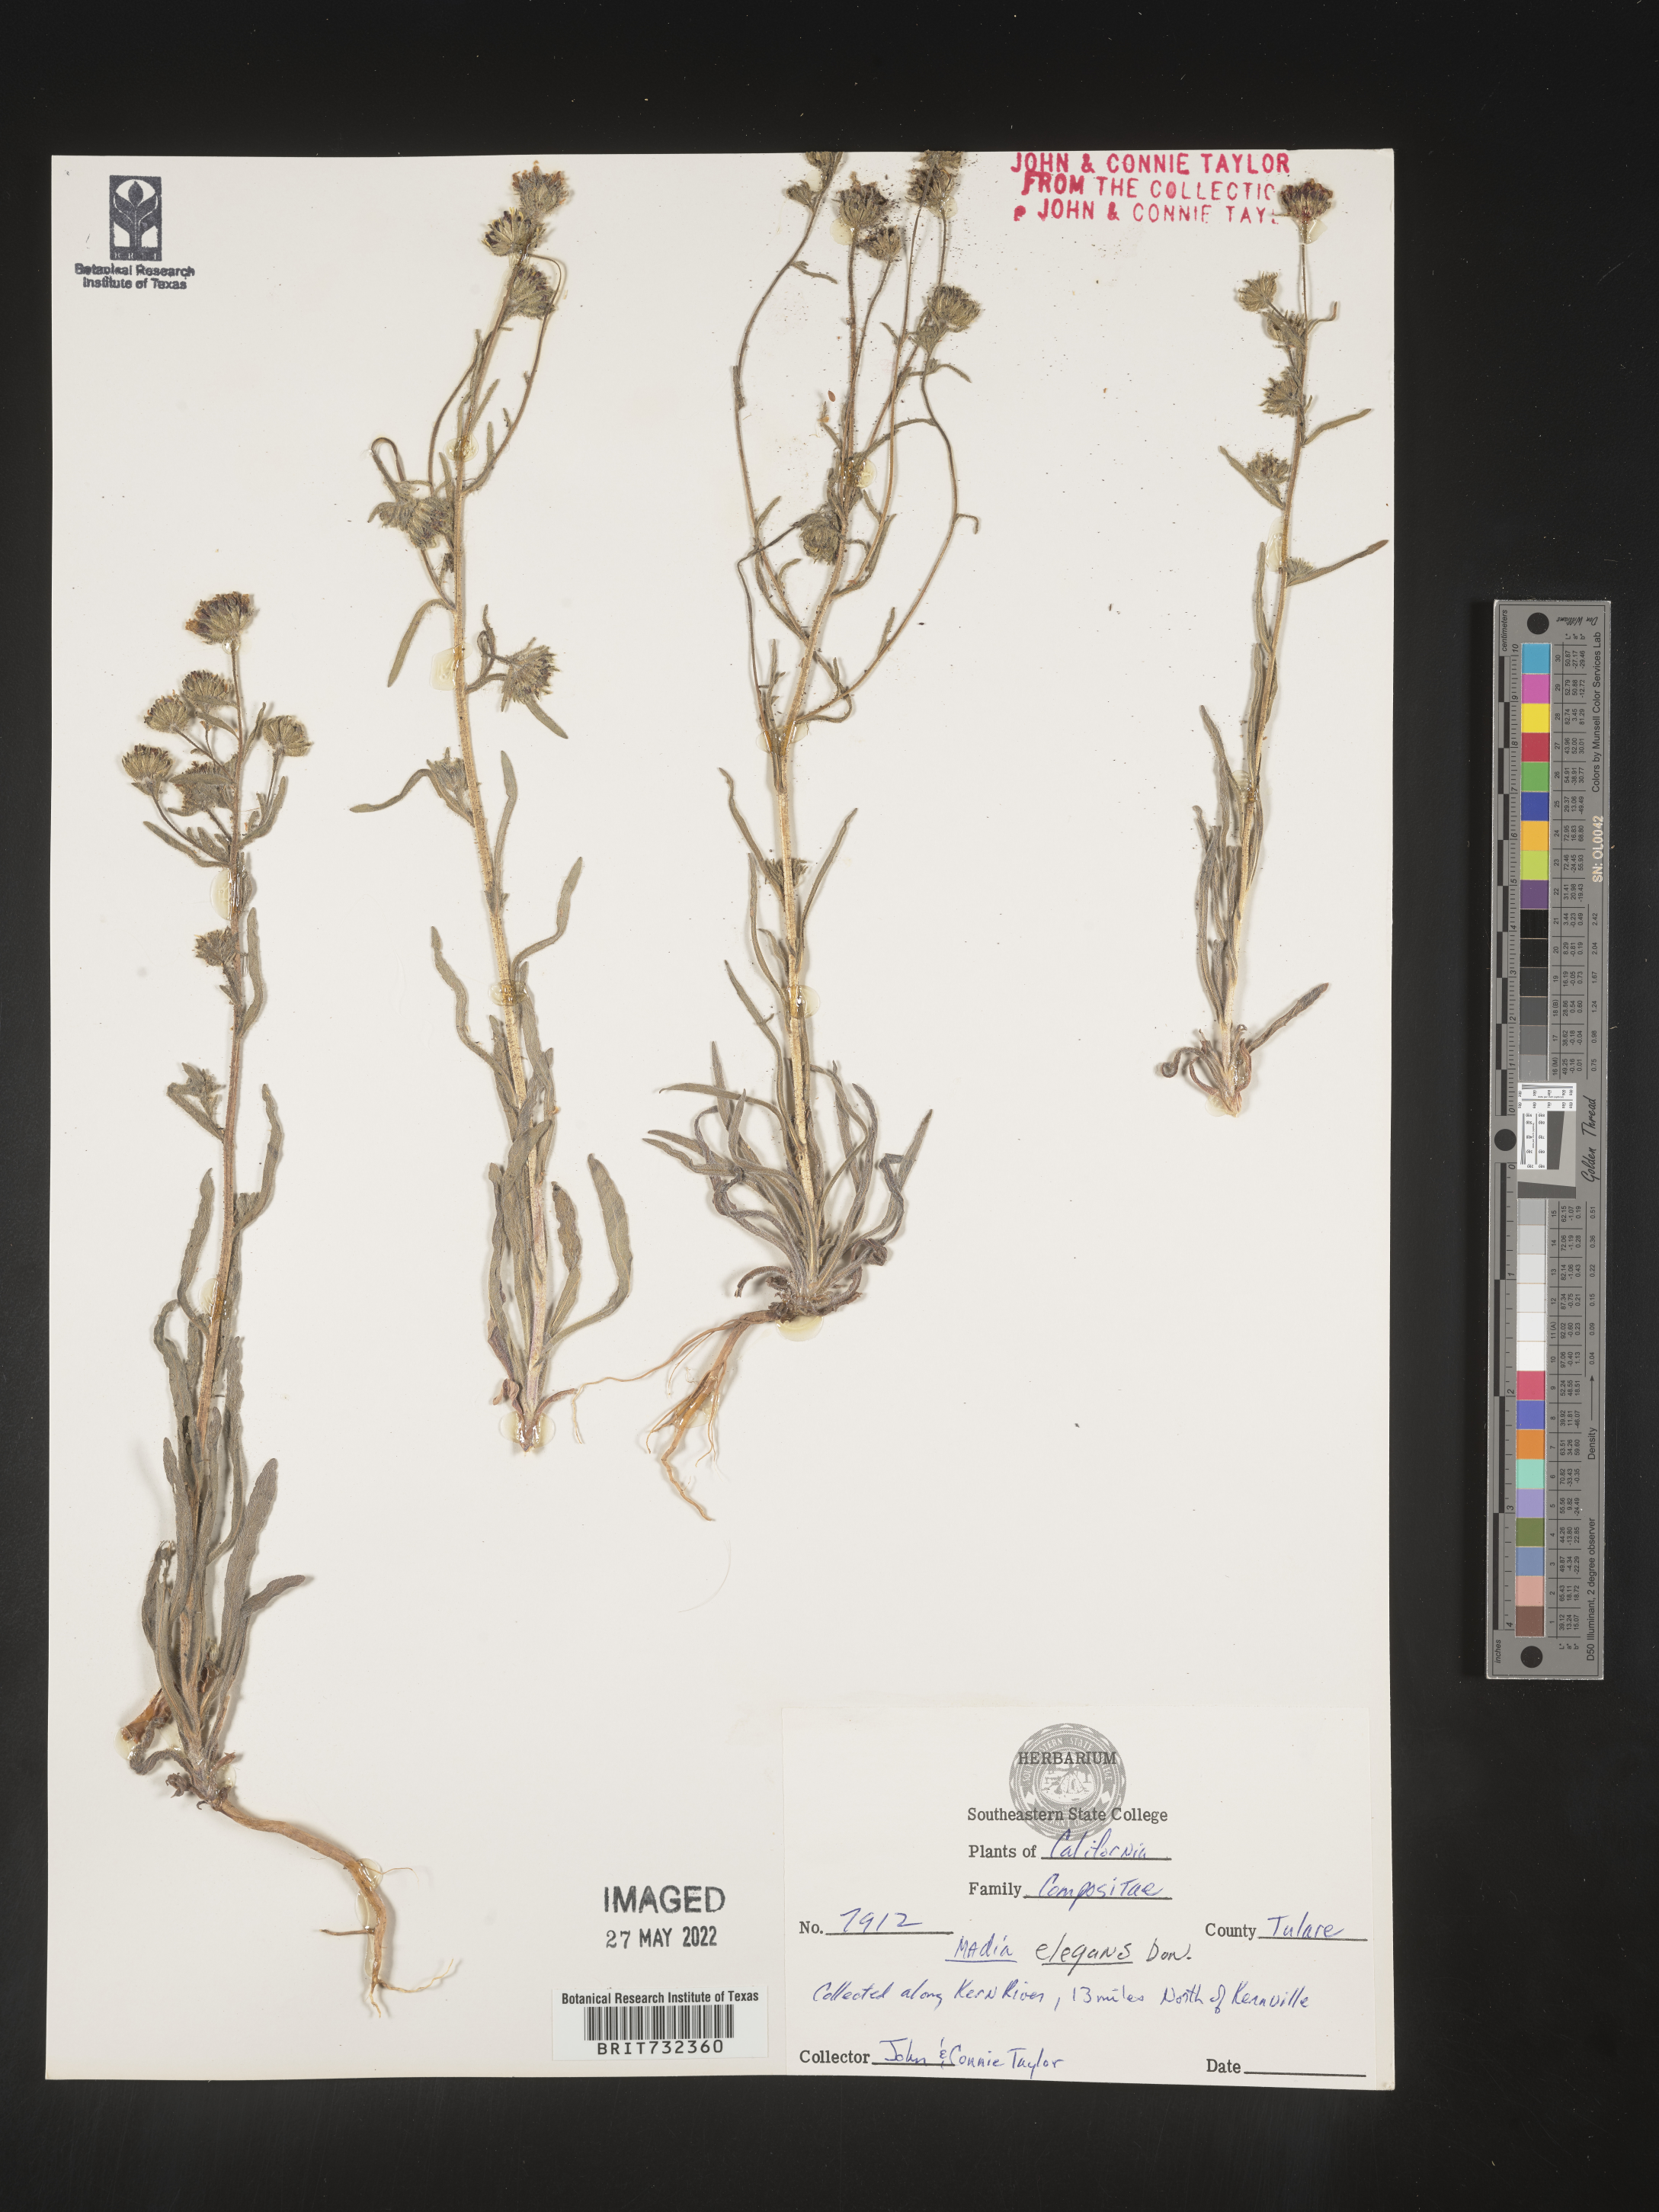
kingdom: Plantae
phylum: Tracheophyta
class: Magnoliopsida
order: Asterales
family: Asteraceae
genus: Madia
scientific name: Madia
